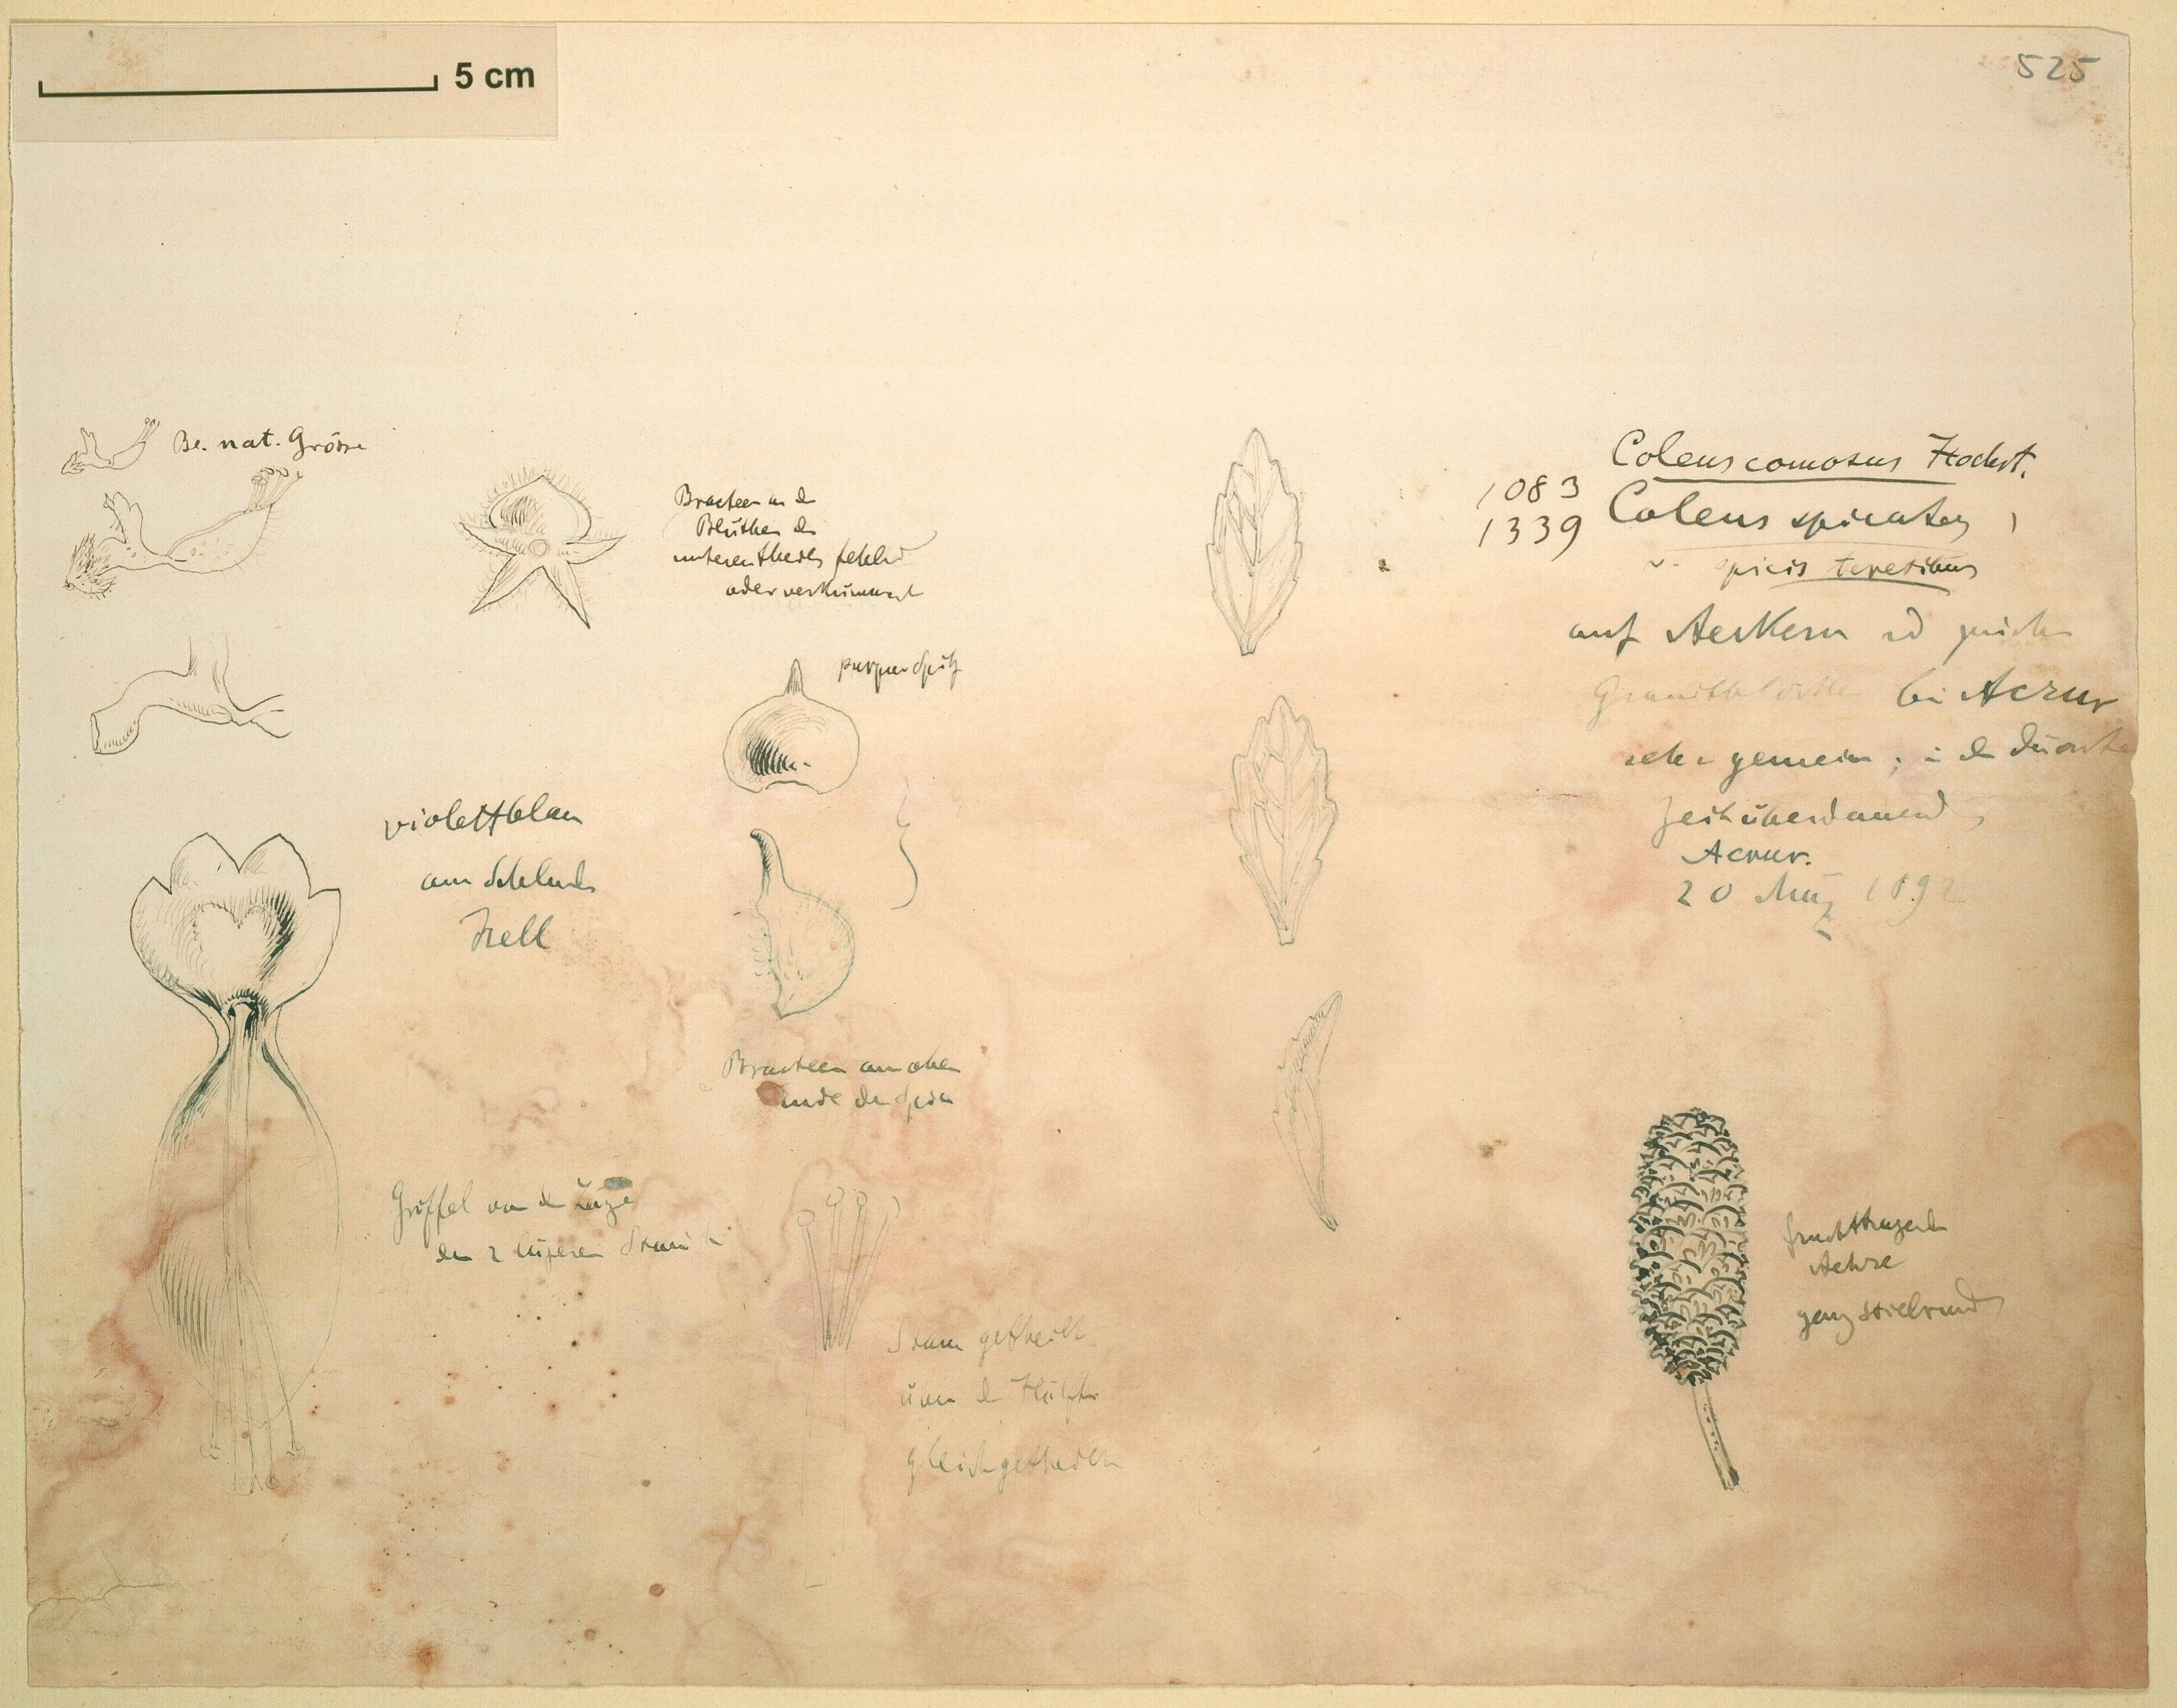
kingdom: Plantae
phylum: Tracheophyta
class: Magnoliopsida
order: Lamiales
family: Lamiaceae
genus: Coleus
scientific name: Coleus comosus
